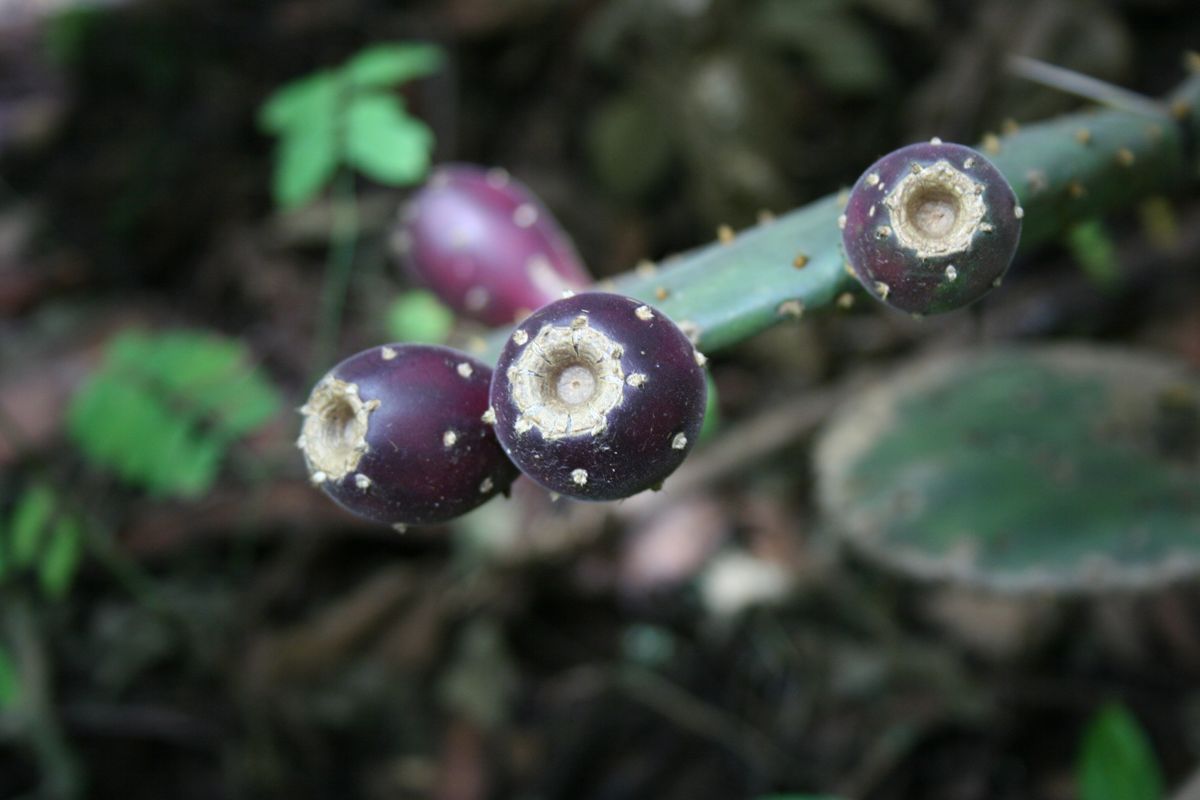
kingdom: Plantae
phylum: Tracheophyta
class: Magnoliopsida
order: Caryophyllales
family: Cactaceae
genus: Opuntia
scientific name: Opuntia
